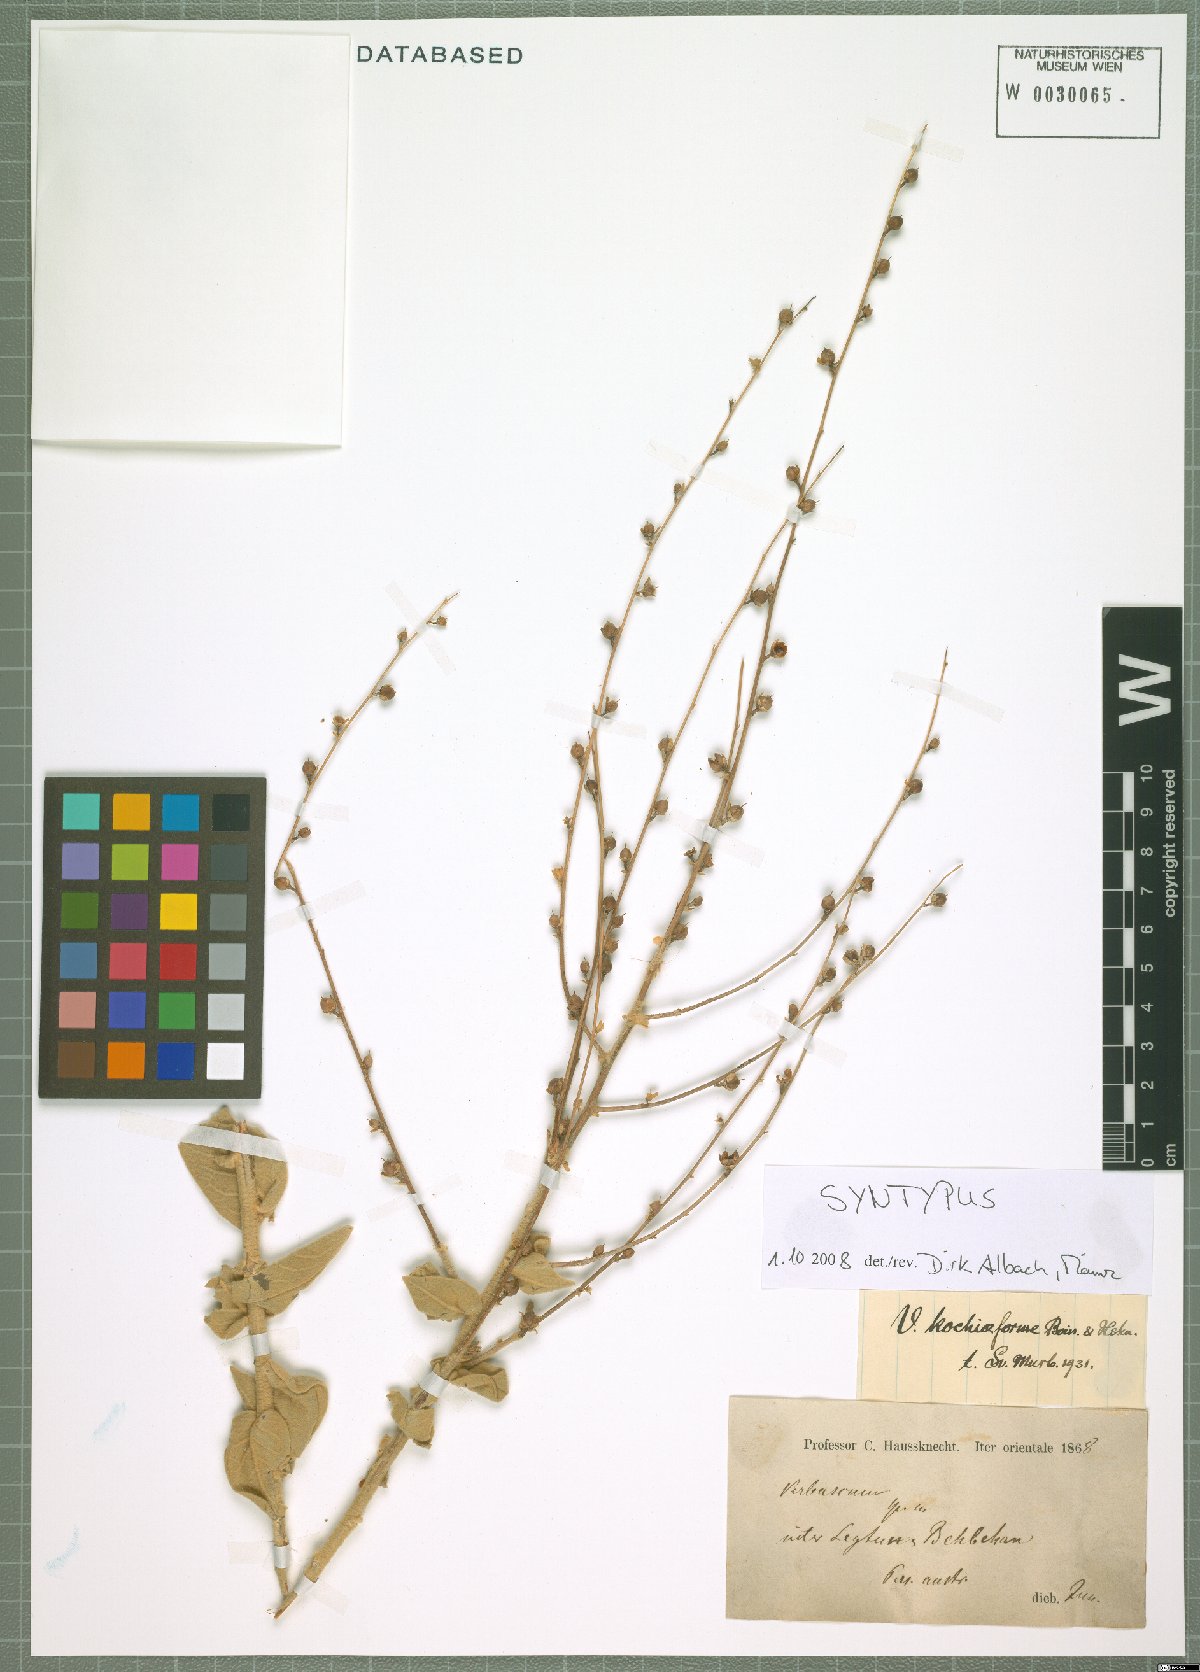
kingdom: Plantae
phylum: Tracheophyta
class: Magnoliopsida
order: Lamiales
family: Scrophulariaceae
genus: Verbascum
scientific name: Verbascum kochiiforme
